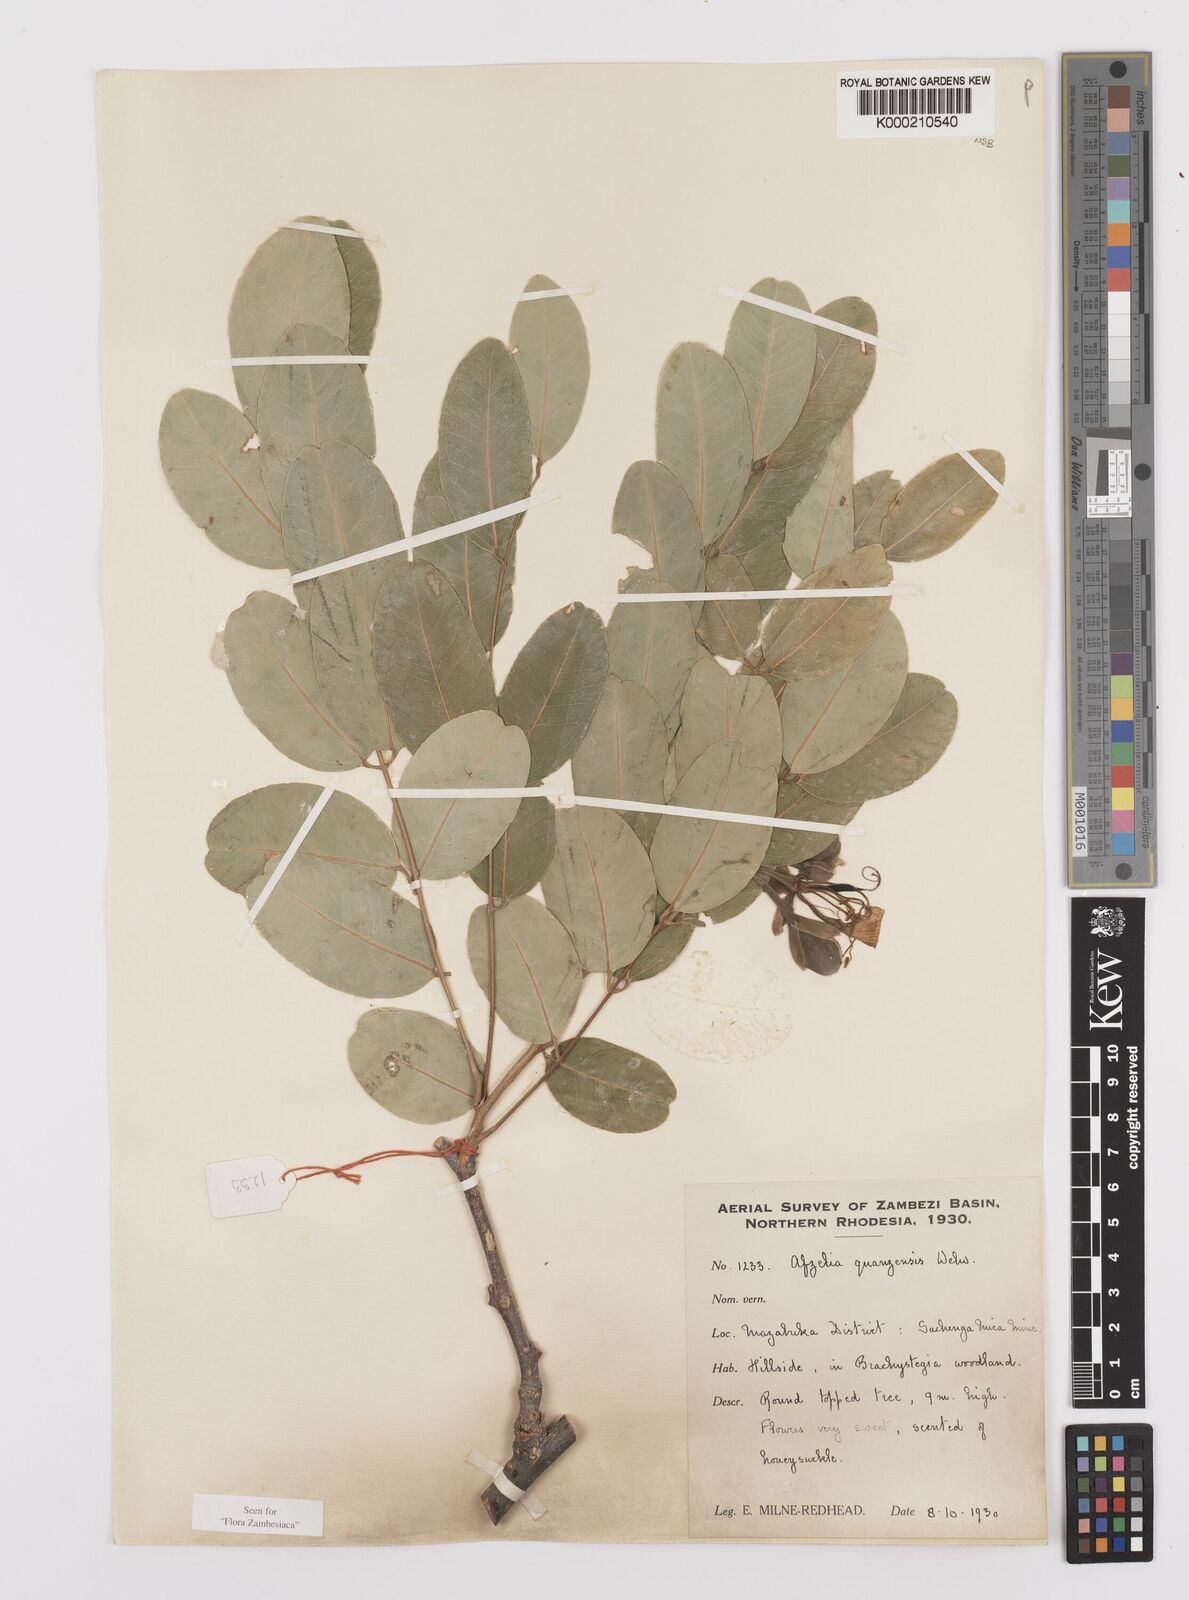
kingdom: Plantae
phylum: Tracheophyta
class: Magnoliopsida
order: Fabales
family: Fabaceae
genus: Afzelia
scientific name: Afzelia quanzensis
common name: Pod mahogany
